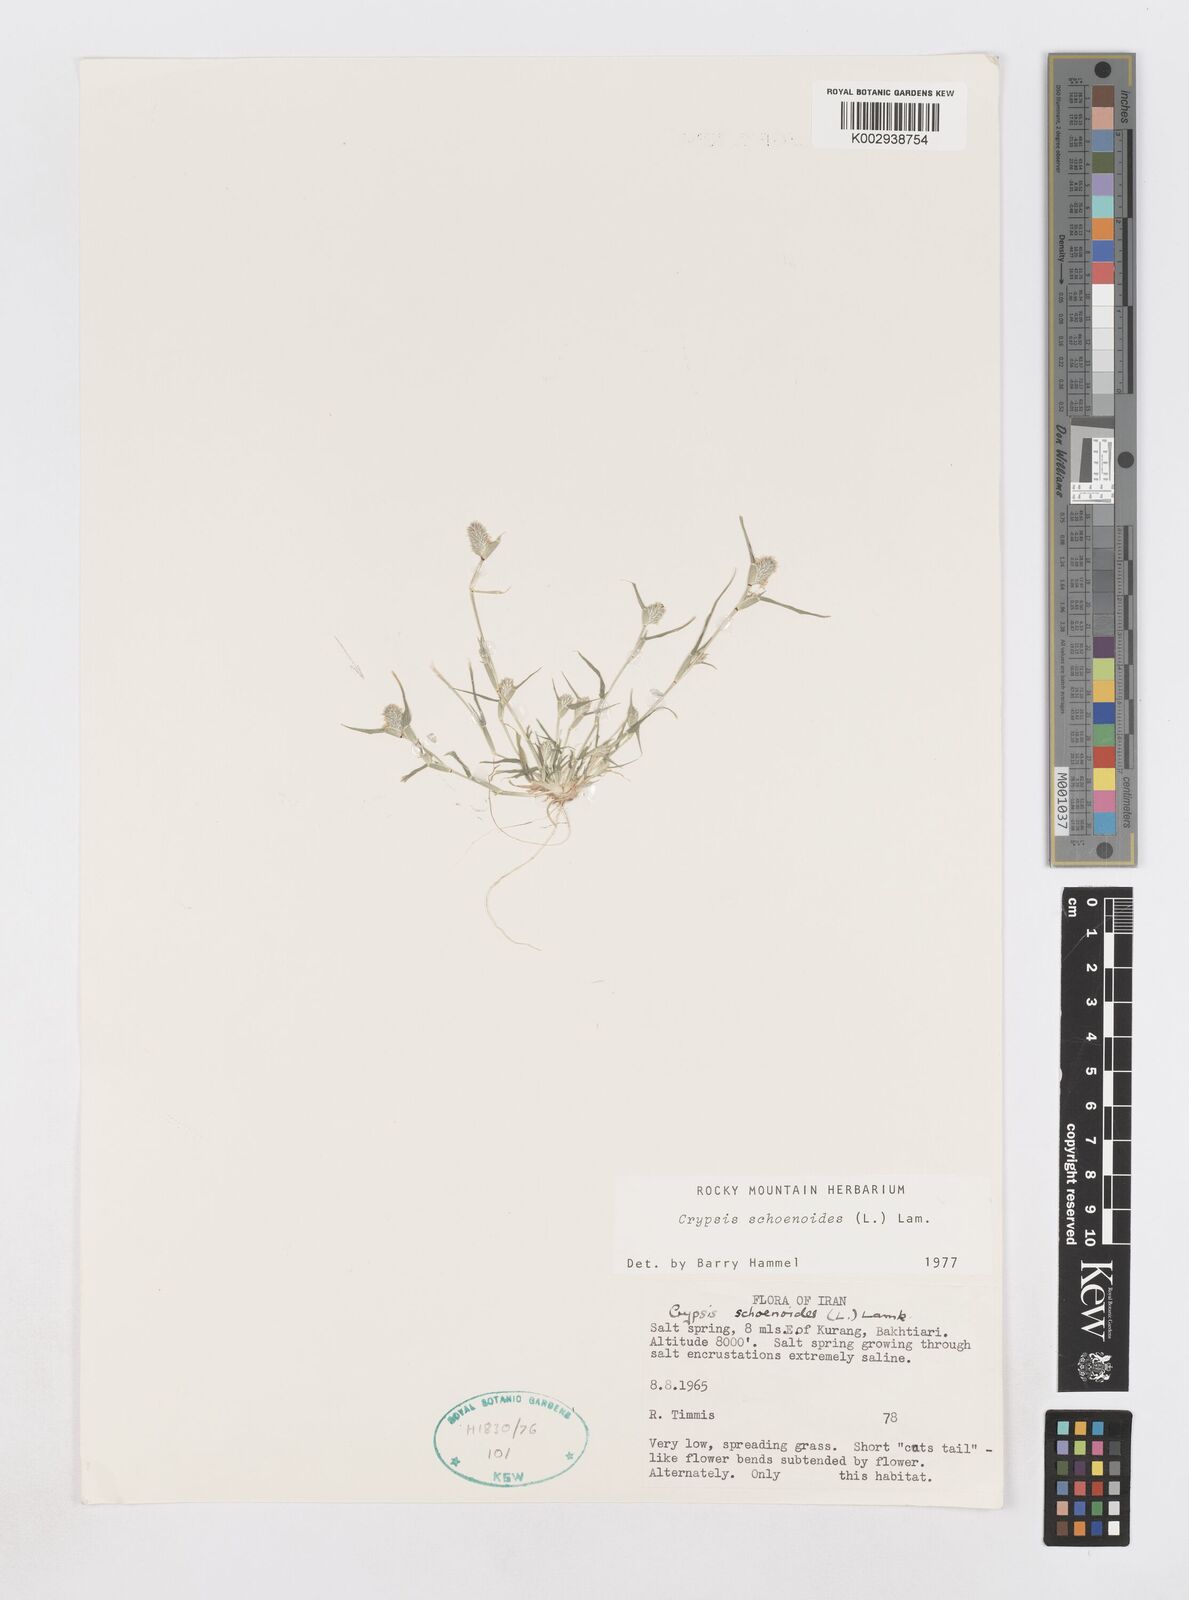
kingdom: Plantae
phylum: Tracheophyta
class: Liliopsida
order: Poales
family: Poaceae
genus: Sporobolus
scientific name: Sporobolus schoenoides
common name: Rush-like timothy
